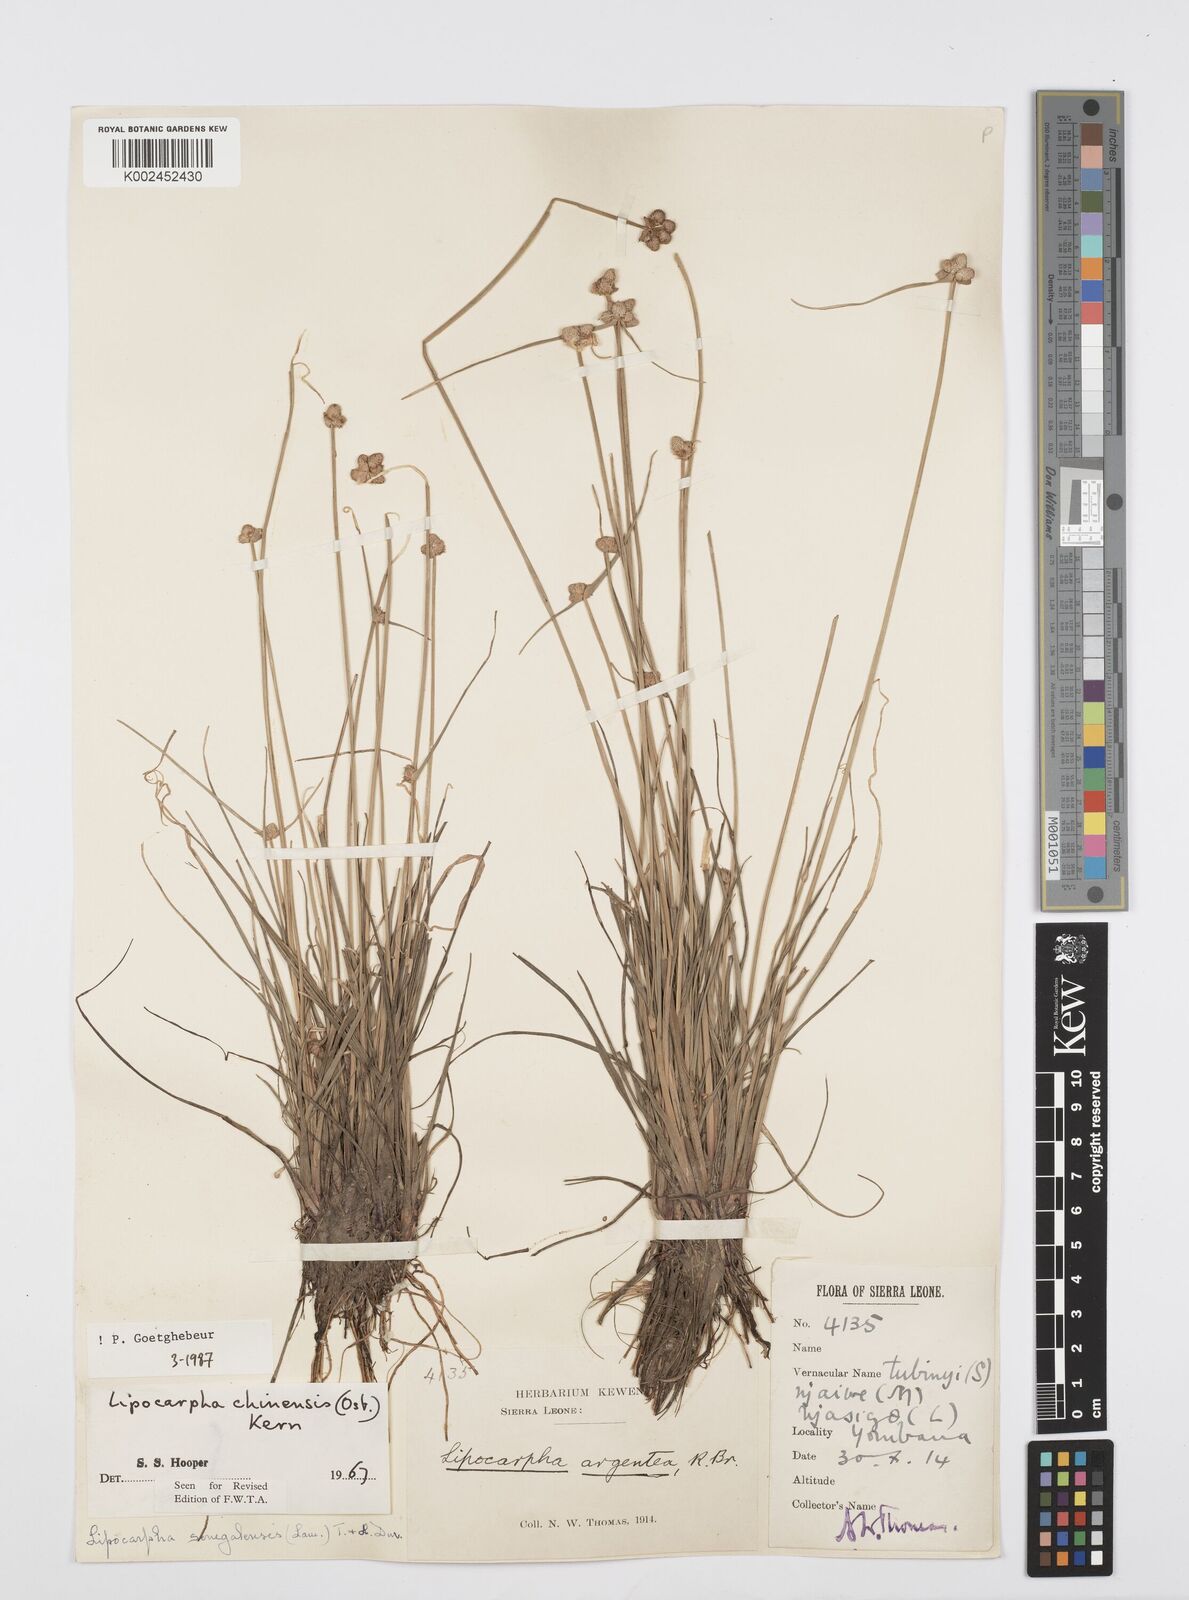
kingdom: Plantae
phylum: Tracheophyta
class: Liliopsida
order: Poales
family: Cyperaceae
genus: Cyperus
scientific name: Cyperus albescens
